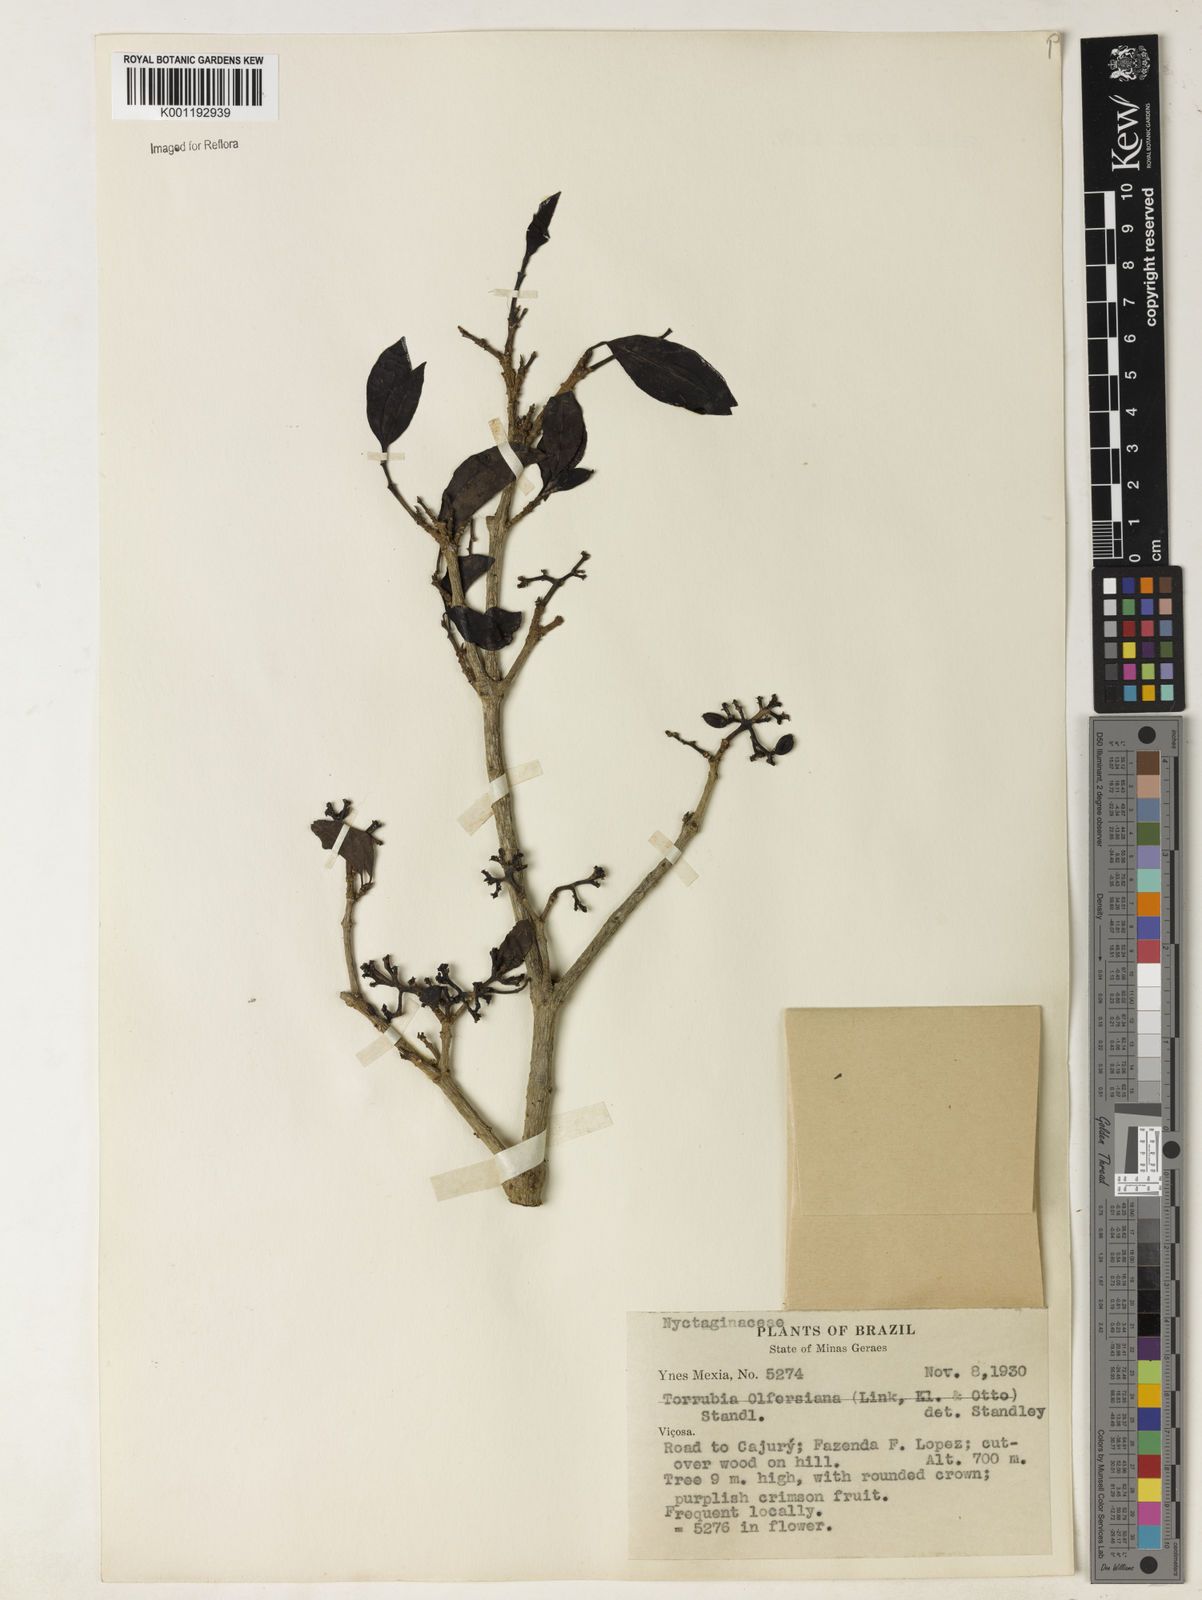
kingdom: Plantae
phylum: Tracheophyta
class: Magnoliopsida
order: Caryophyllales
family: Nyctaginaceae
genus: Guapira
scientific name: Guapira
